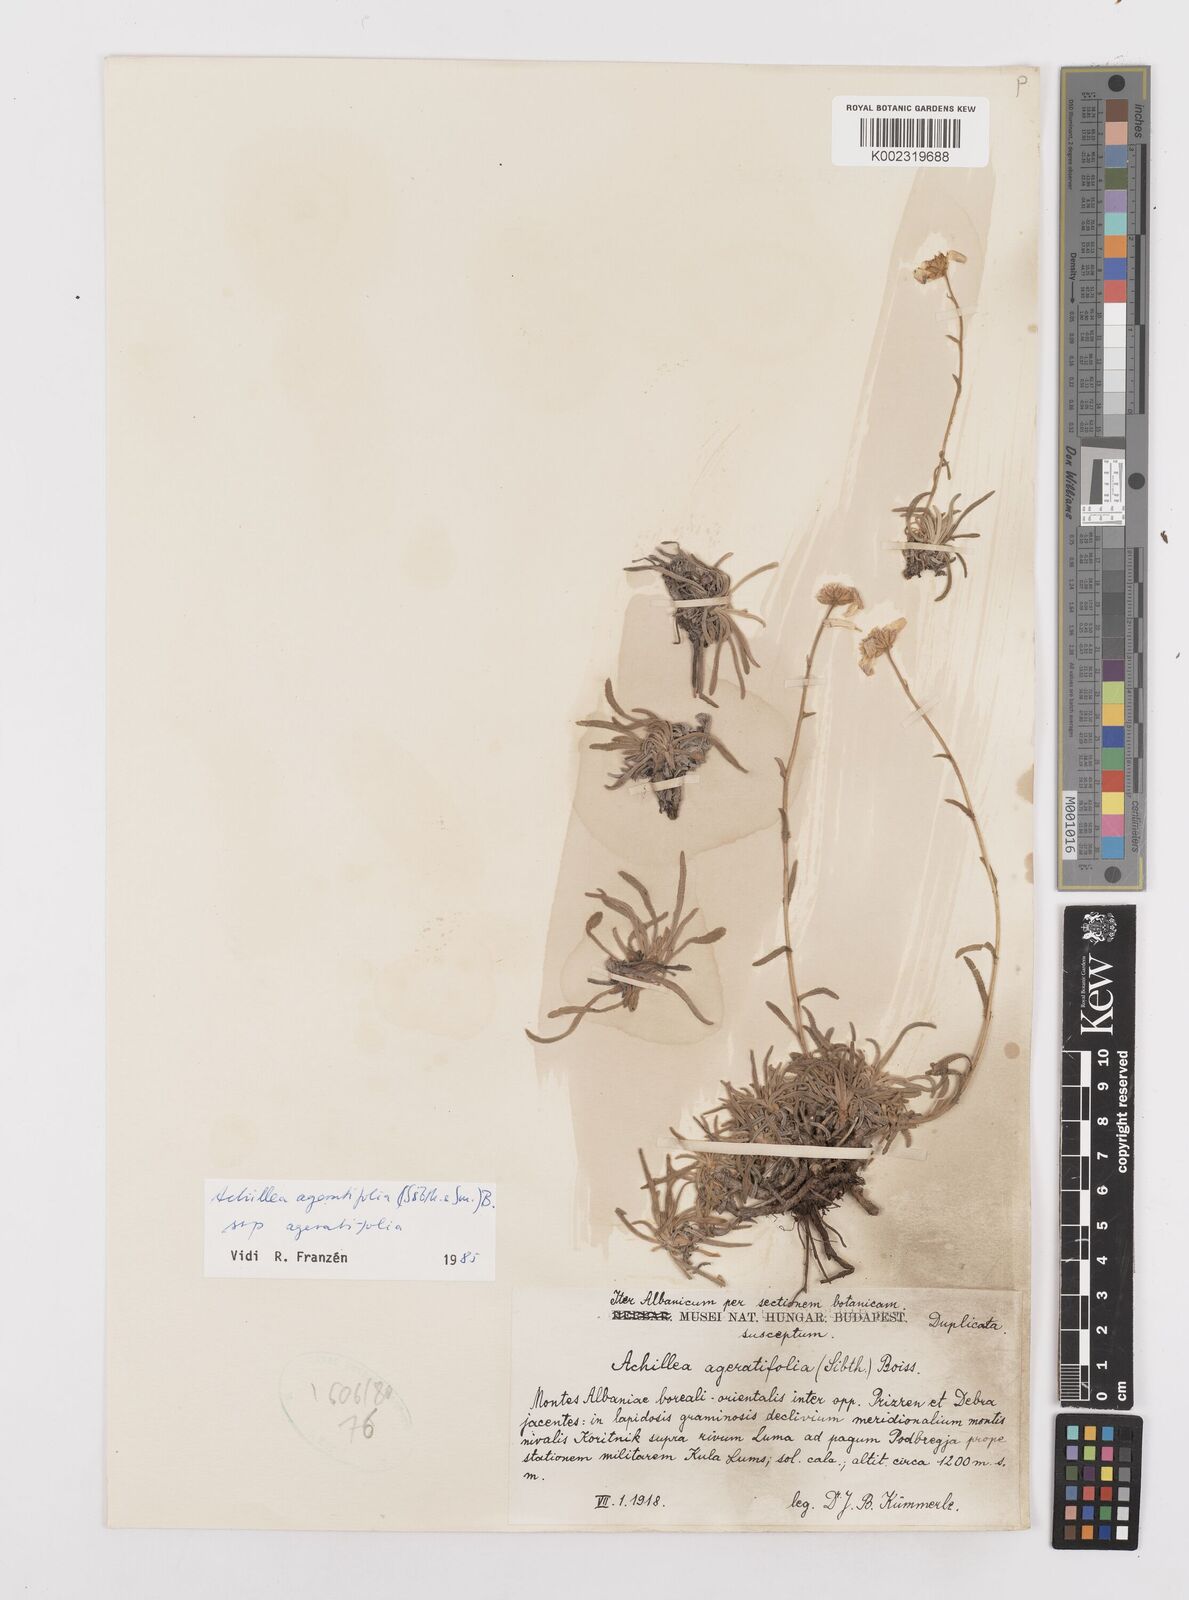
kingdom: Plantae
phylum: Tracheophyta
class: Magnoliopsida
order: Asterales
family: Asteraceae
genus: Achillea
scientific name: Achillea ageratifolia
